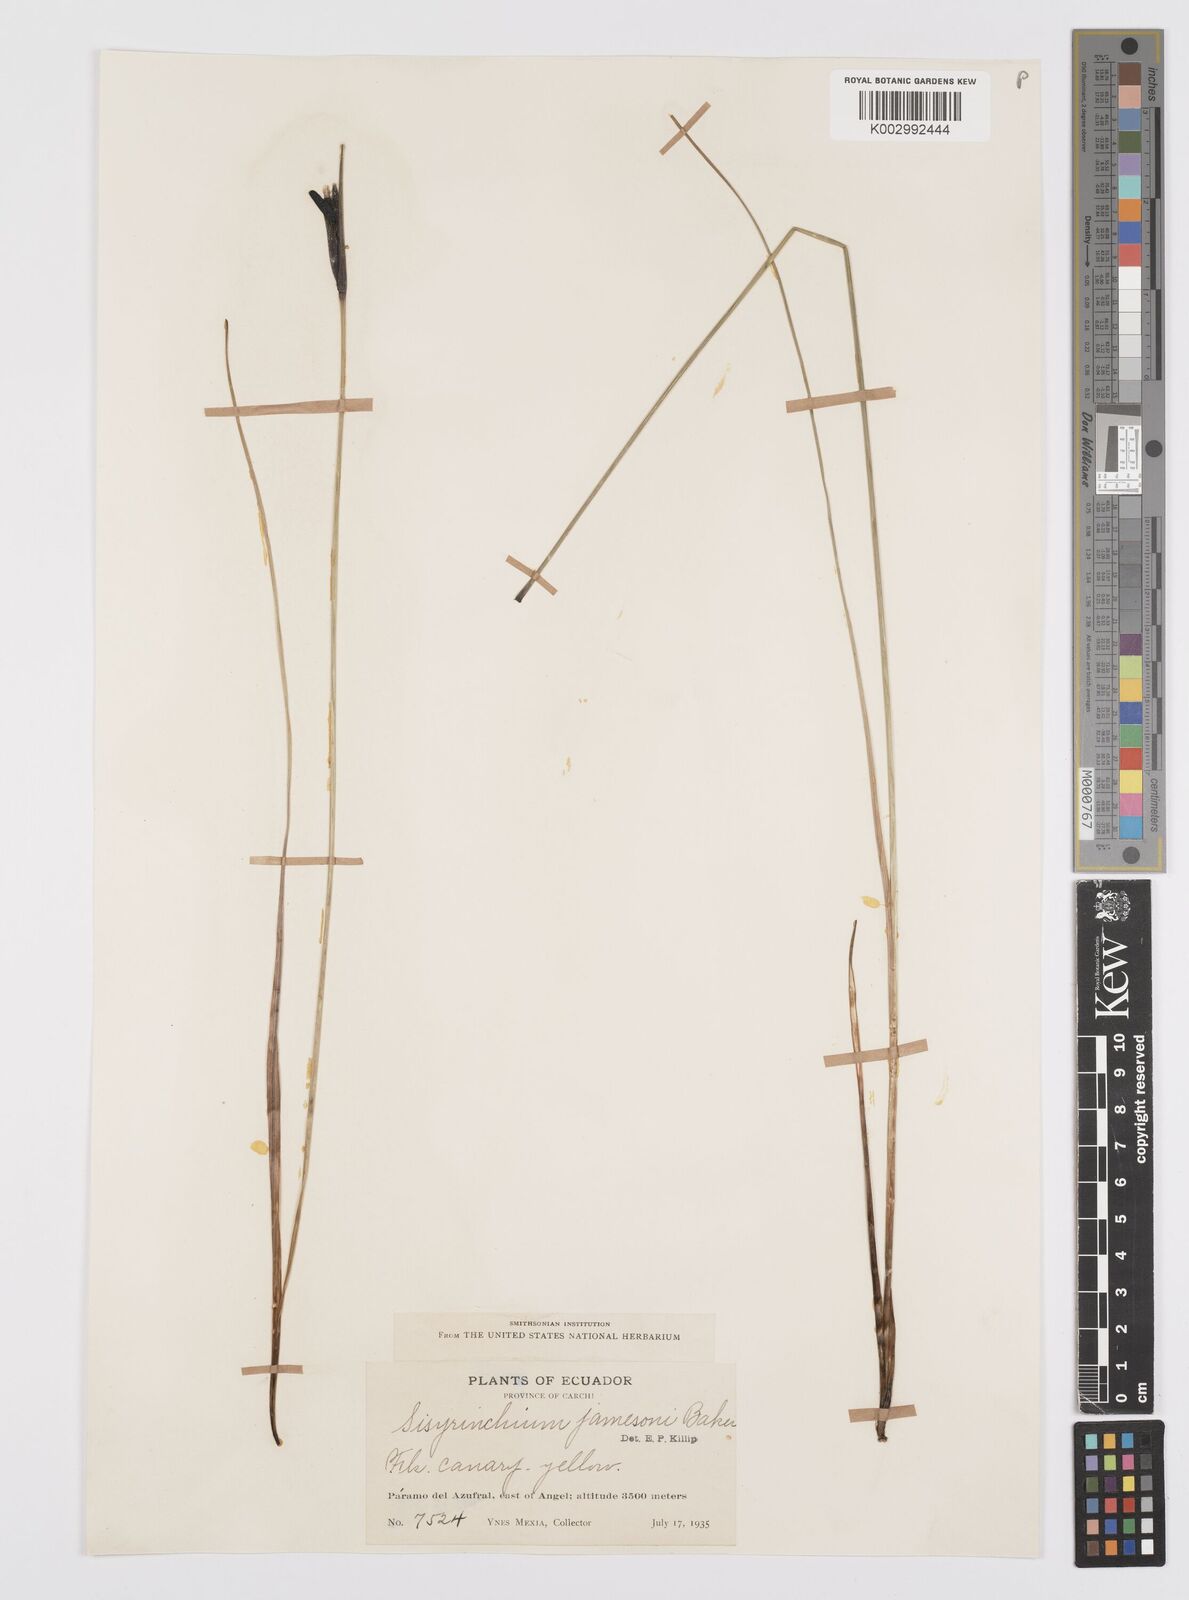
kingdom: Plantae
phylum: Tracheophyta
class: Liliopsida
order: Asparagales
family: Iridaceae
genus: Sisyrinchium
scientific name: Sisyrinchium jamesonii
